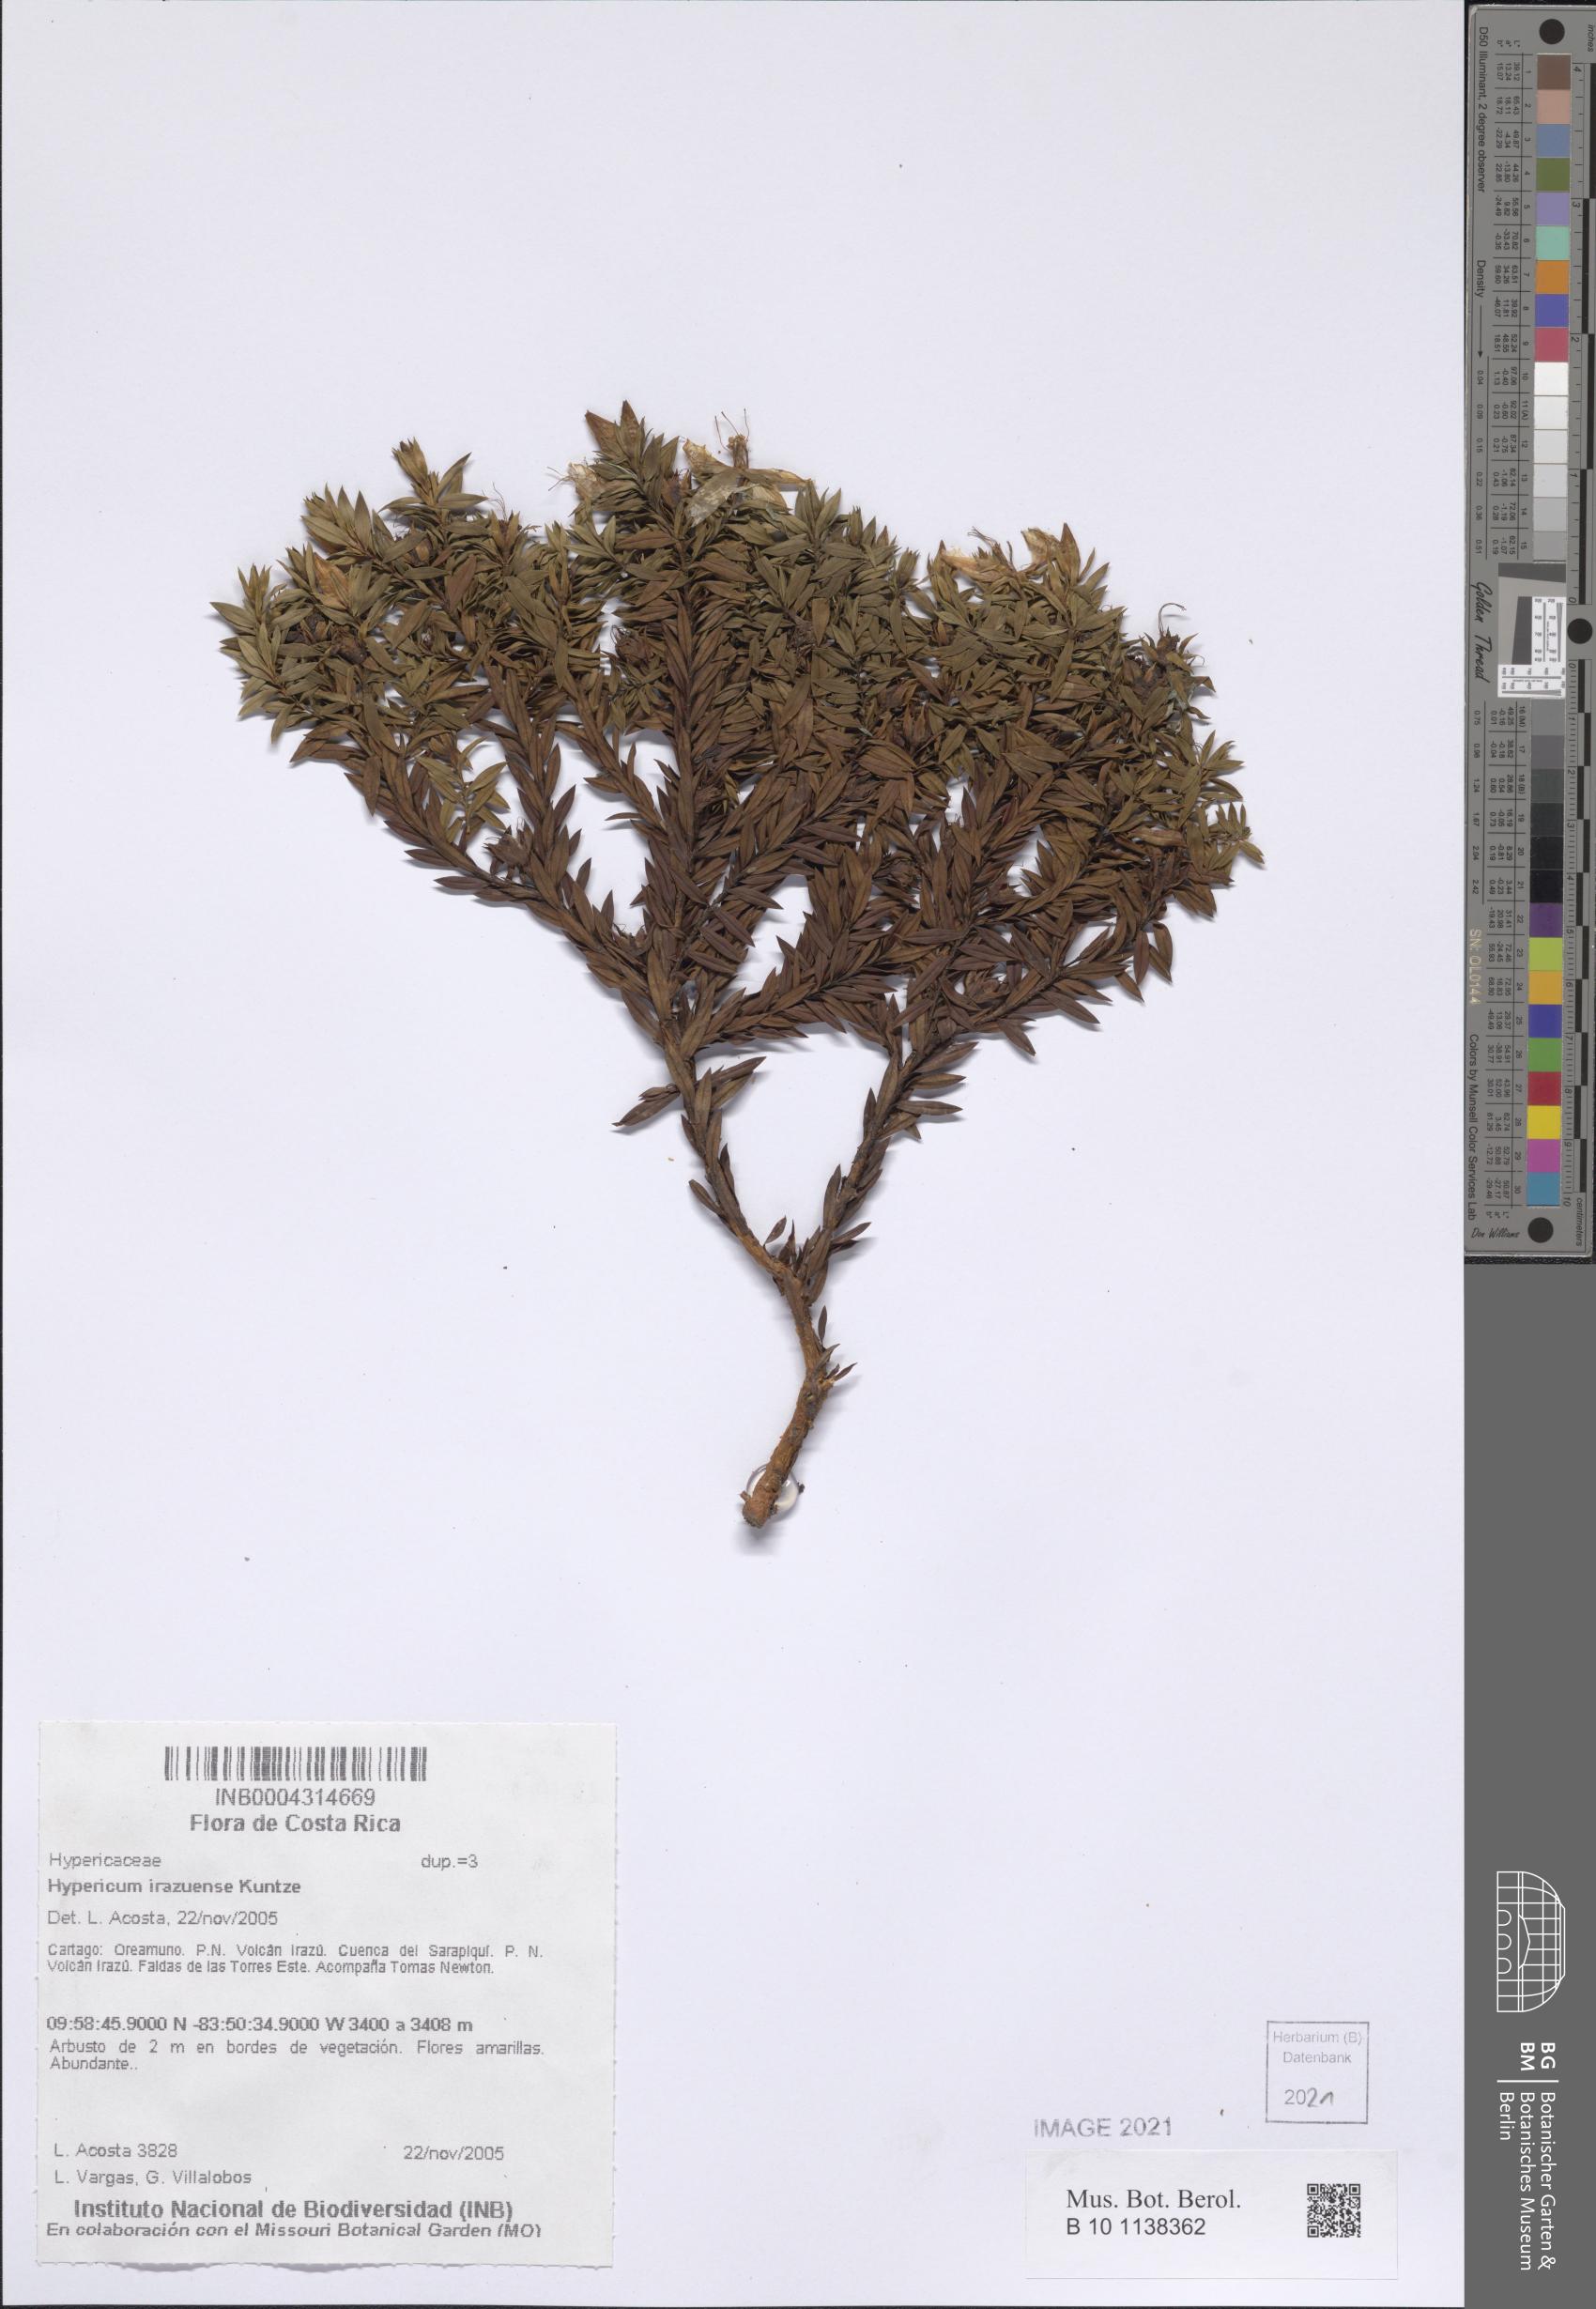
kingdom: Plantae
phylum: Tracheophyta
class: Magnoliopsida
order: Malpighiales
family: Hypericaceae
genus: Hypericum
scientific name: Hypericum irazuense
